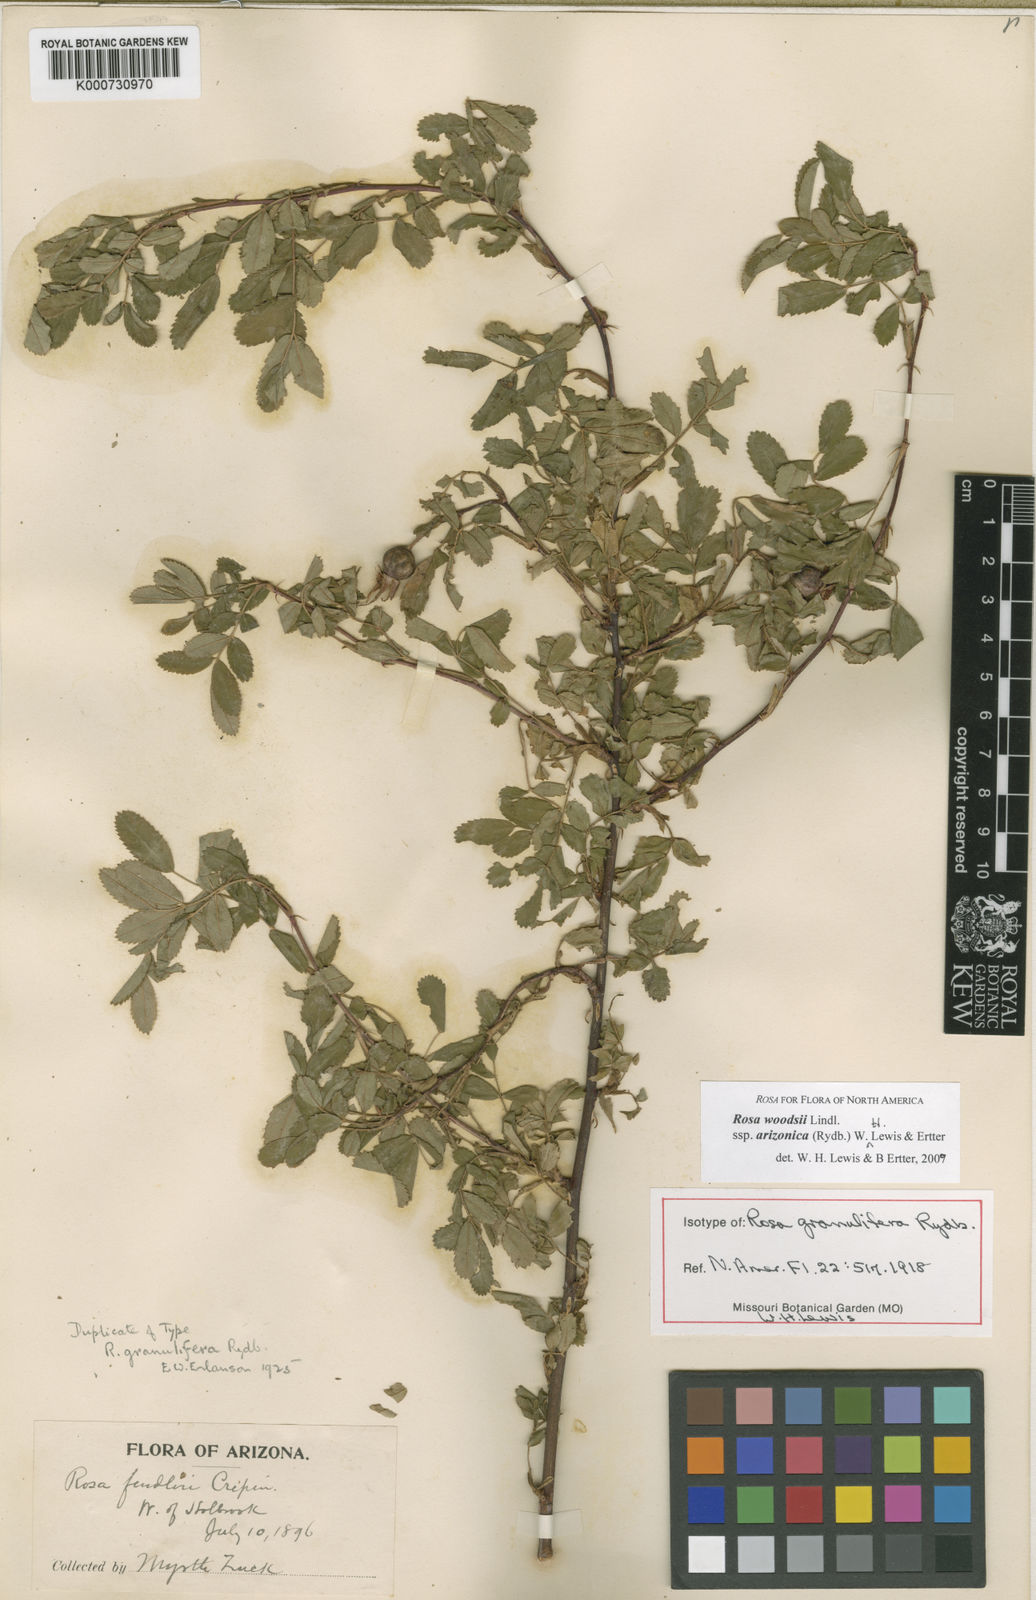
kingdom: Plantae
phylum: Tracheophyta
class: Magnoliopsida
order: Rosales
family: Rosaceae
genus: Rosa
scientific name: Rosa woodsii
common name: Woods's rose
